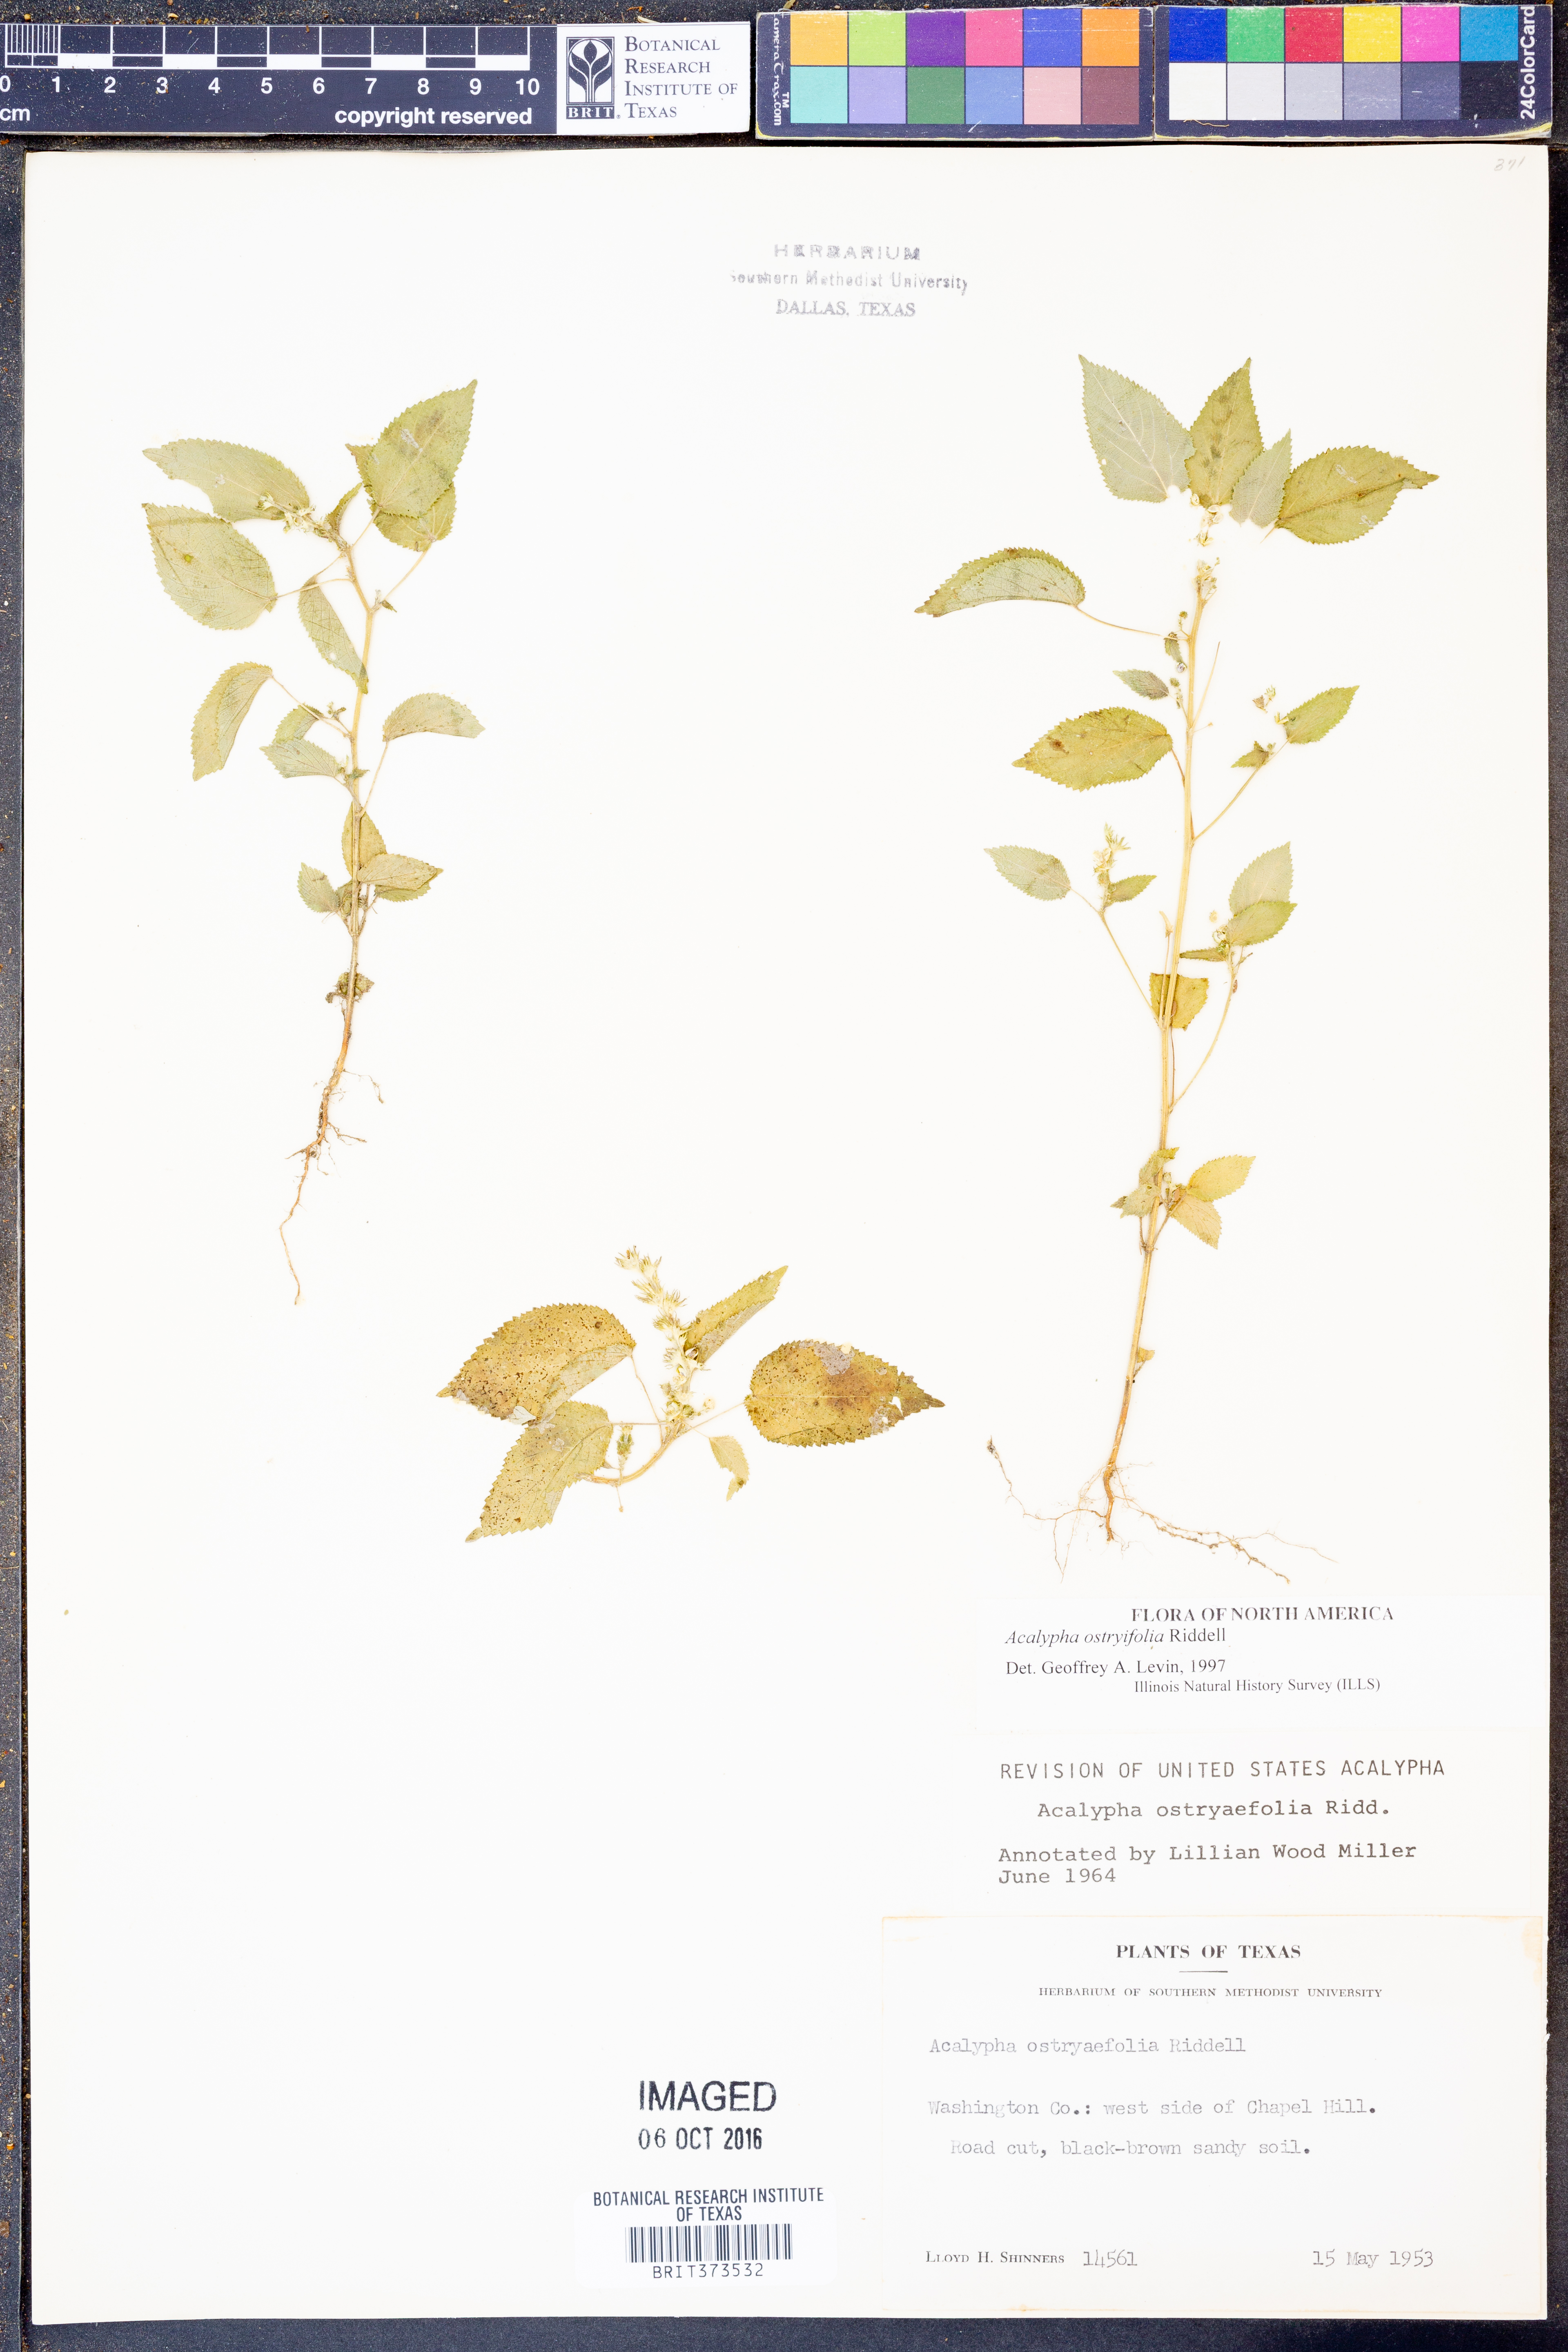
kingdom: Plantae
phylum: Tracheophyta
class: Magnoliopsida
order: Malpighiales
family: Euphorbiaceae
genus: Acalypha
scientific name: Acalypha persimilis
